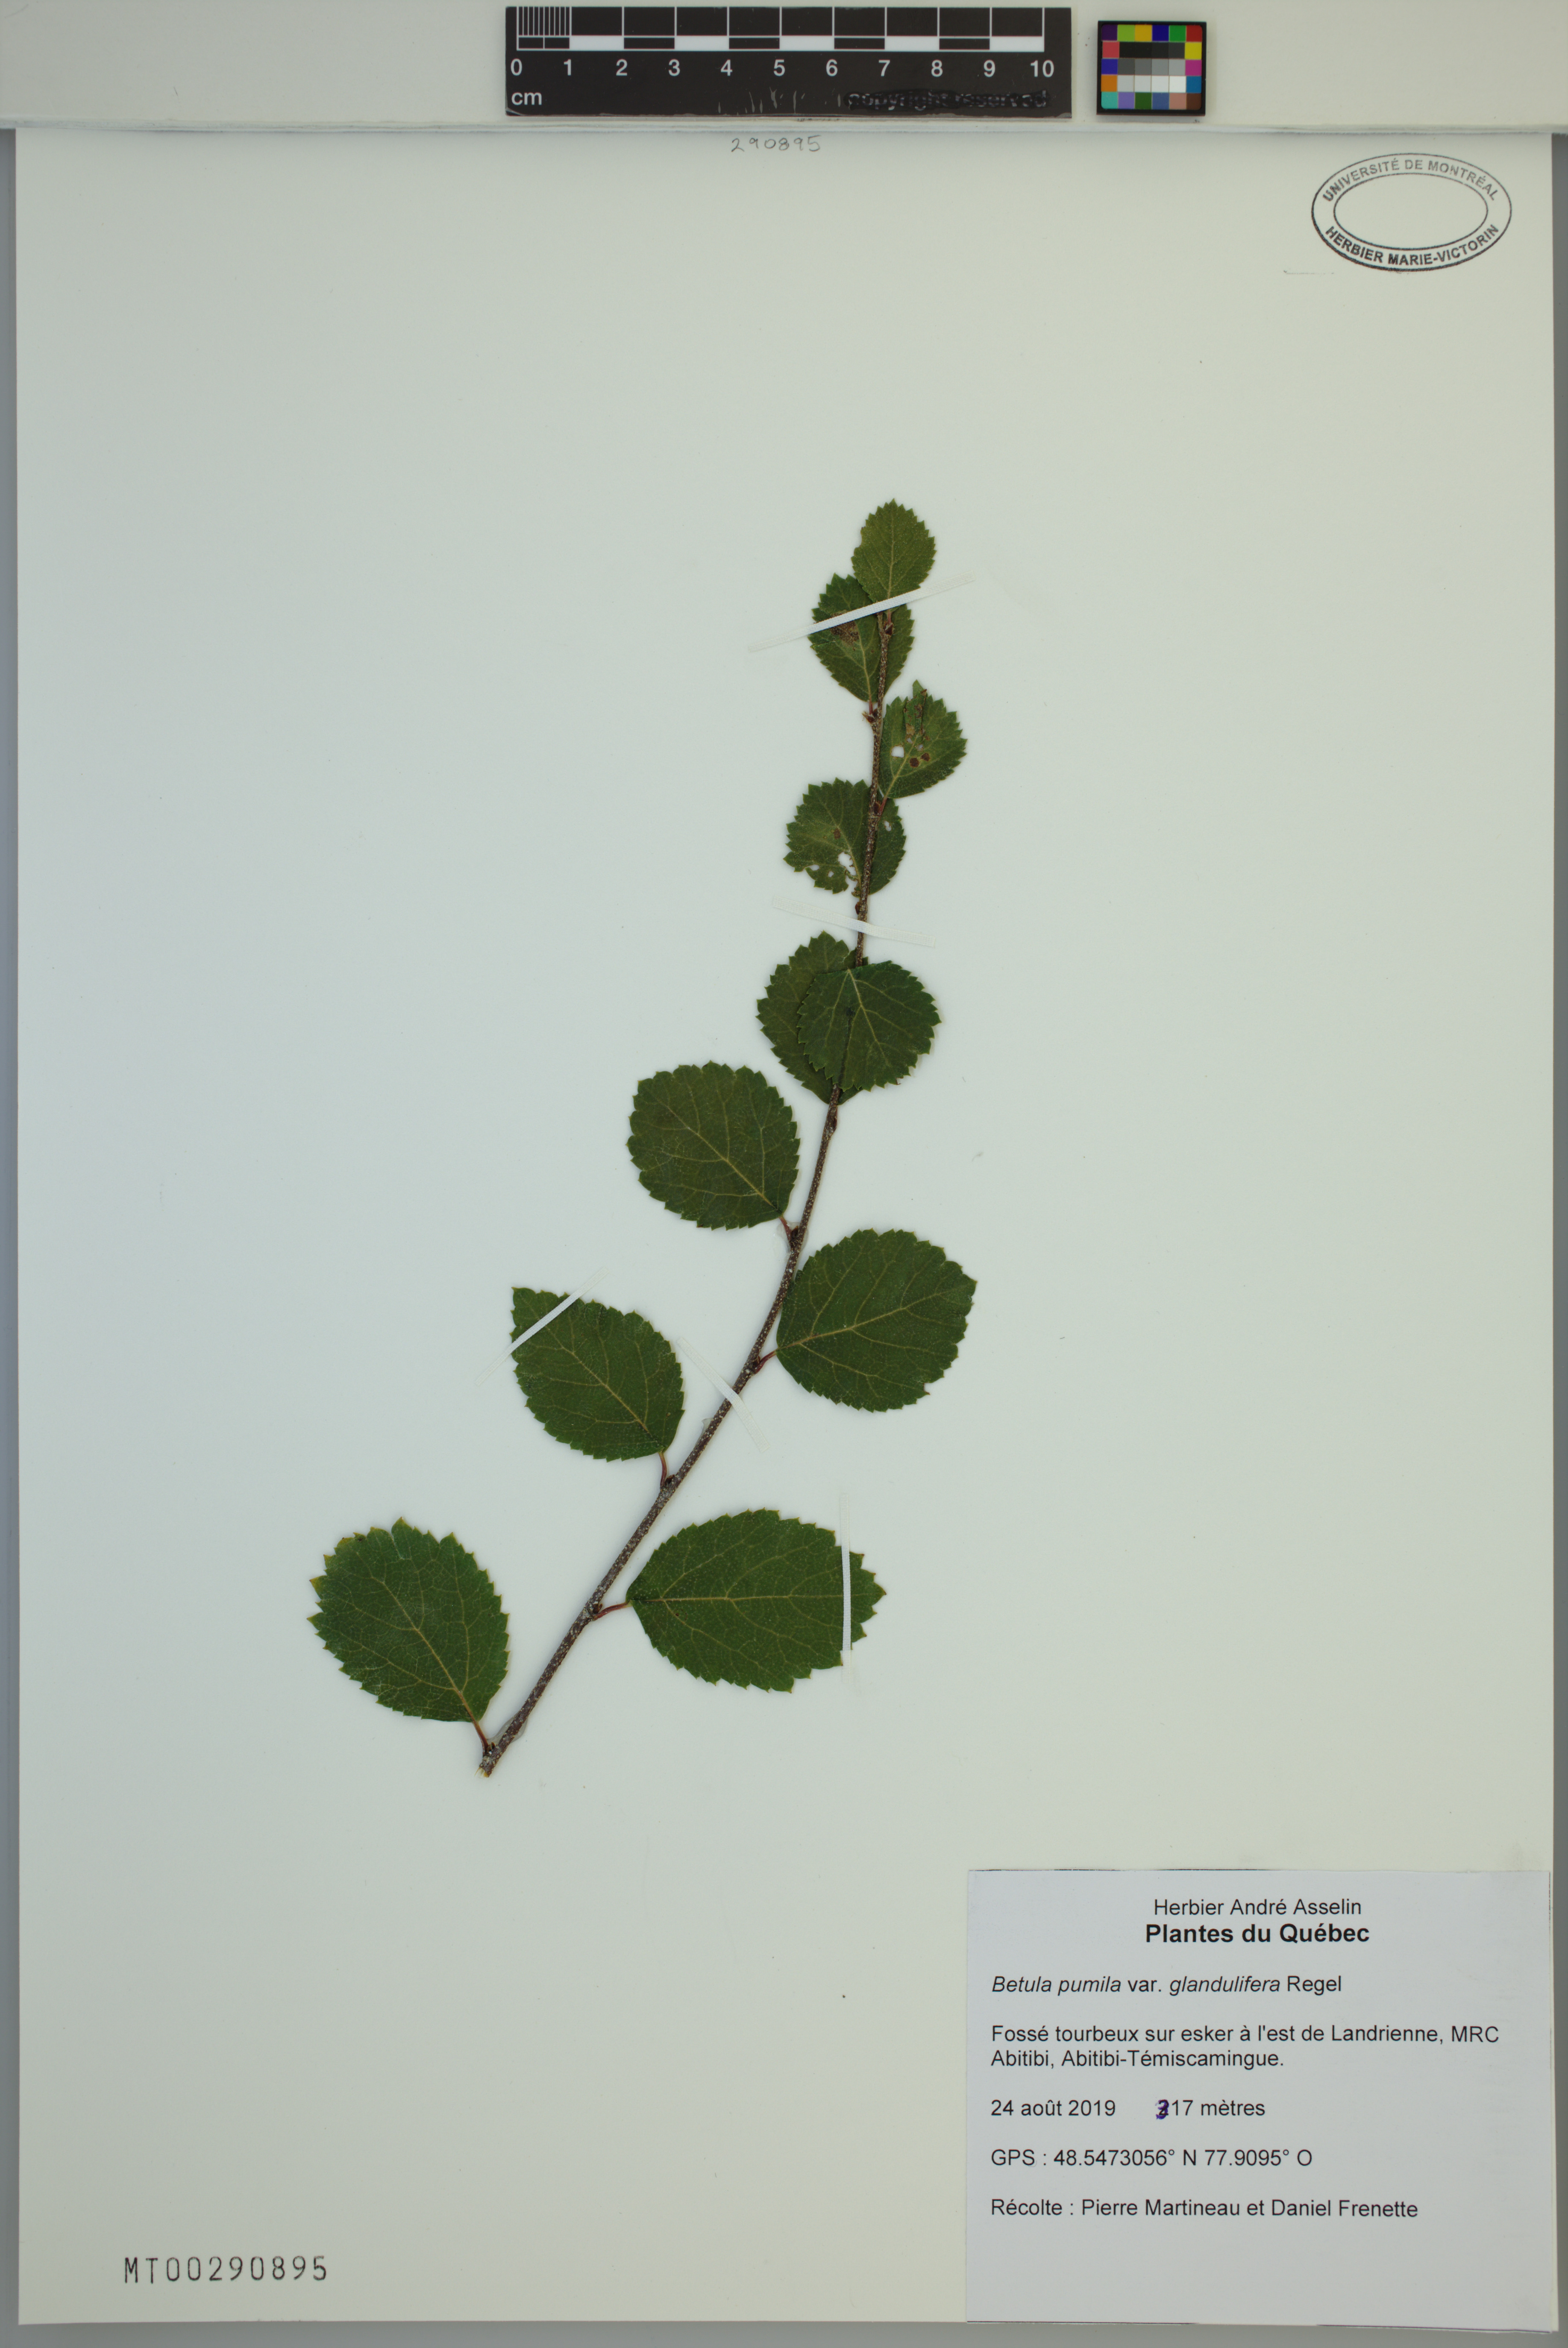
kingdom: Plantae
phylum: Tracheophyta
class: Magnoliopsida
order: Fagales
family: Betulaceae
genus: Betula
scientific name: Betula pumila
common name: Bog birch
